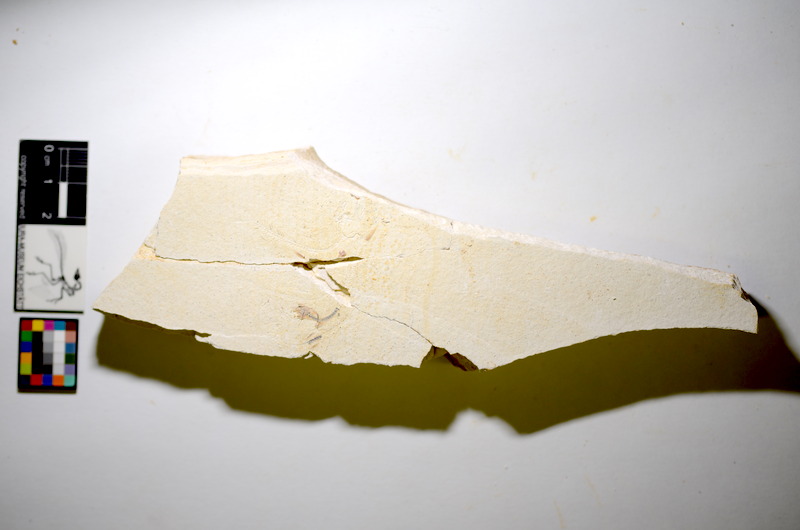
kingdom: Animalia
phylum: Chordata
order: Salmoniformes
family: Orthogonikleithridae
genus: Orthogonikleithrus
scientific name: Orthogonikleithrus hoelli
